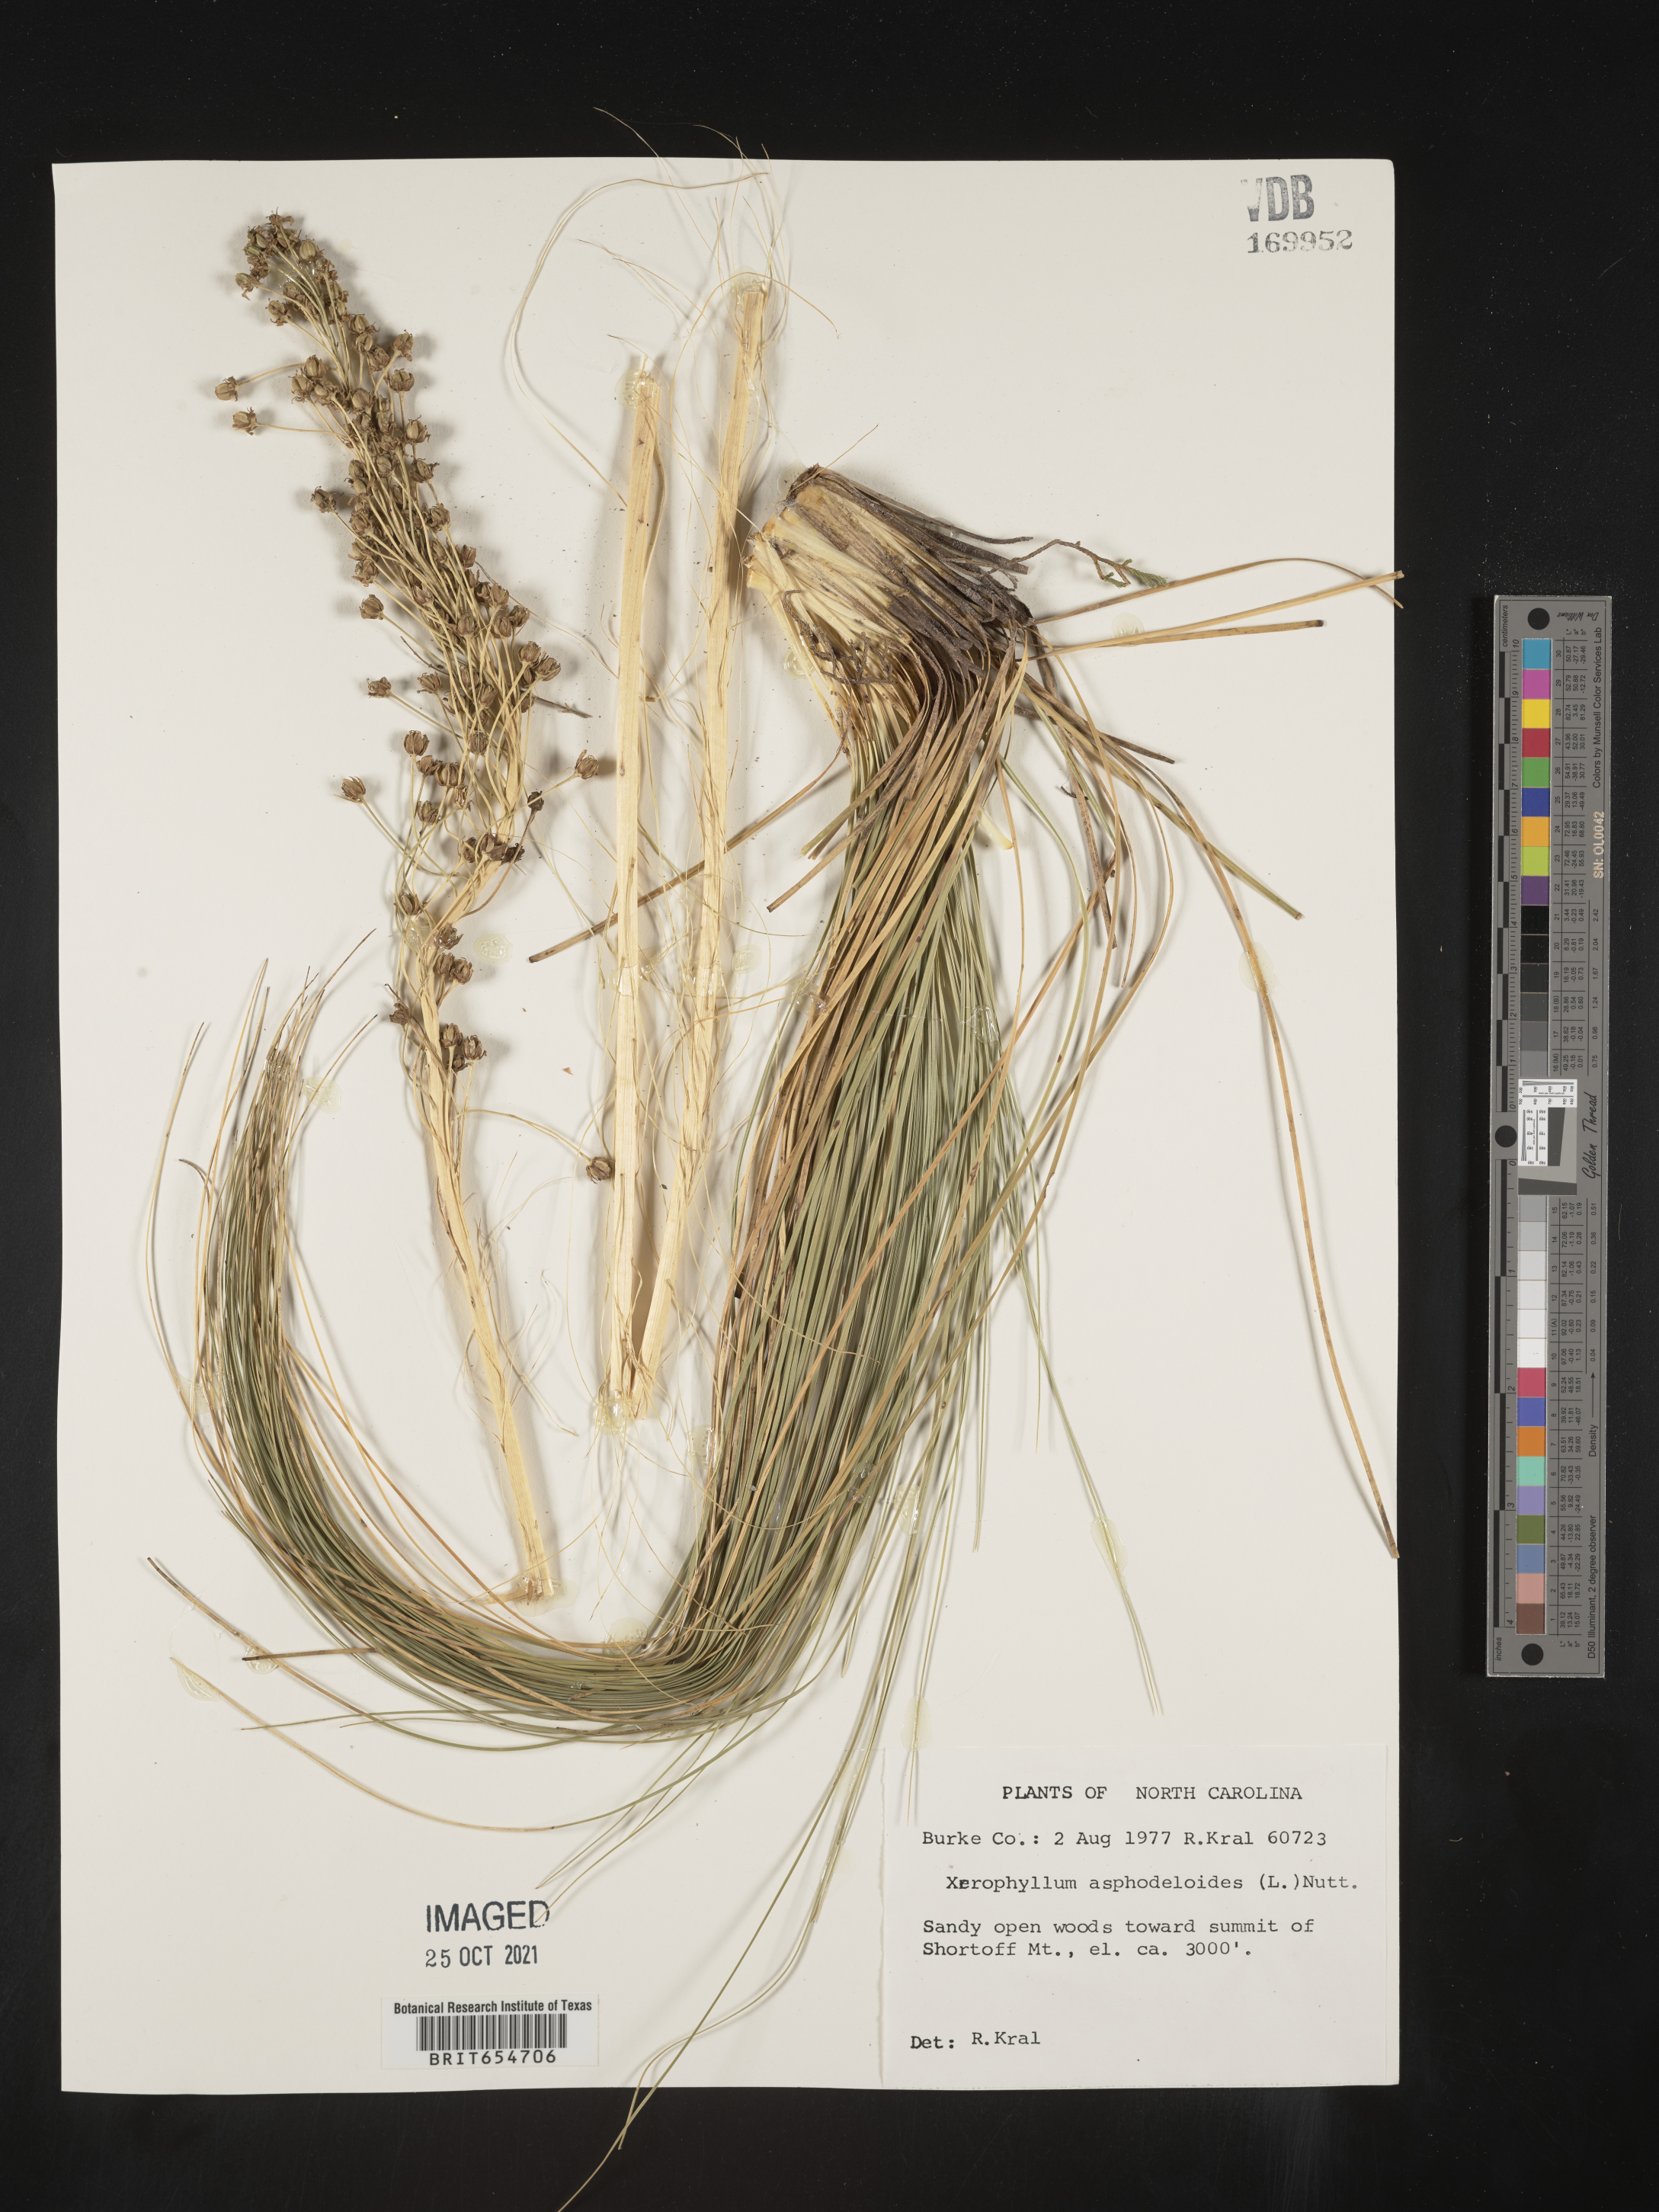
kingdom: Plantae
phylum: Tracheophyta
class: Liliopsida
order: Liliales
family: Melanthiaceae
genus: Xerophyllum
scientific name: Xerophyllum
